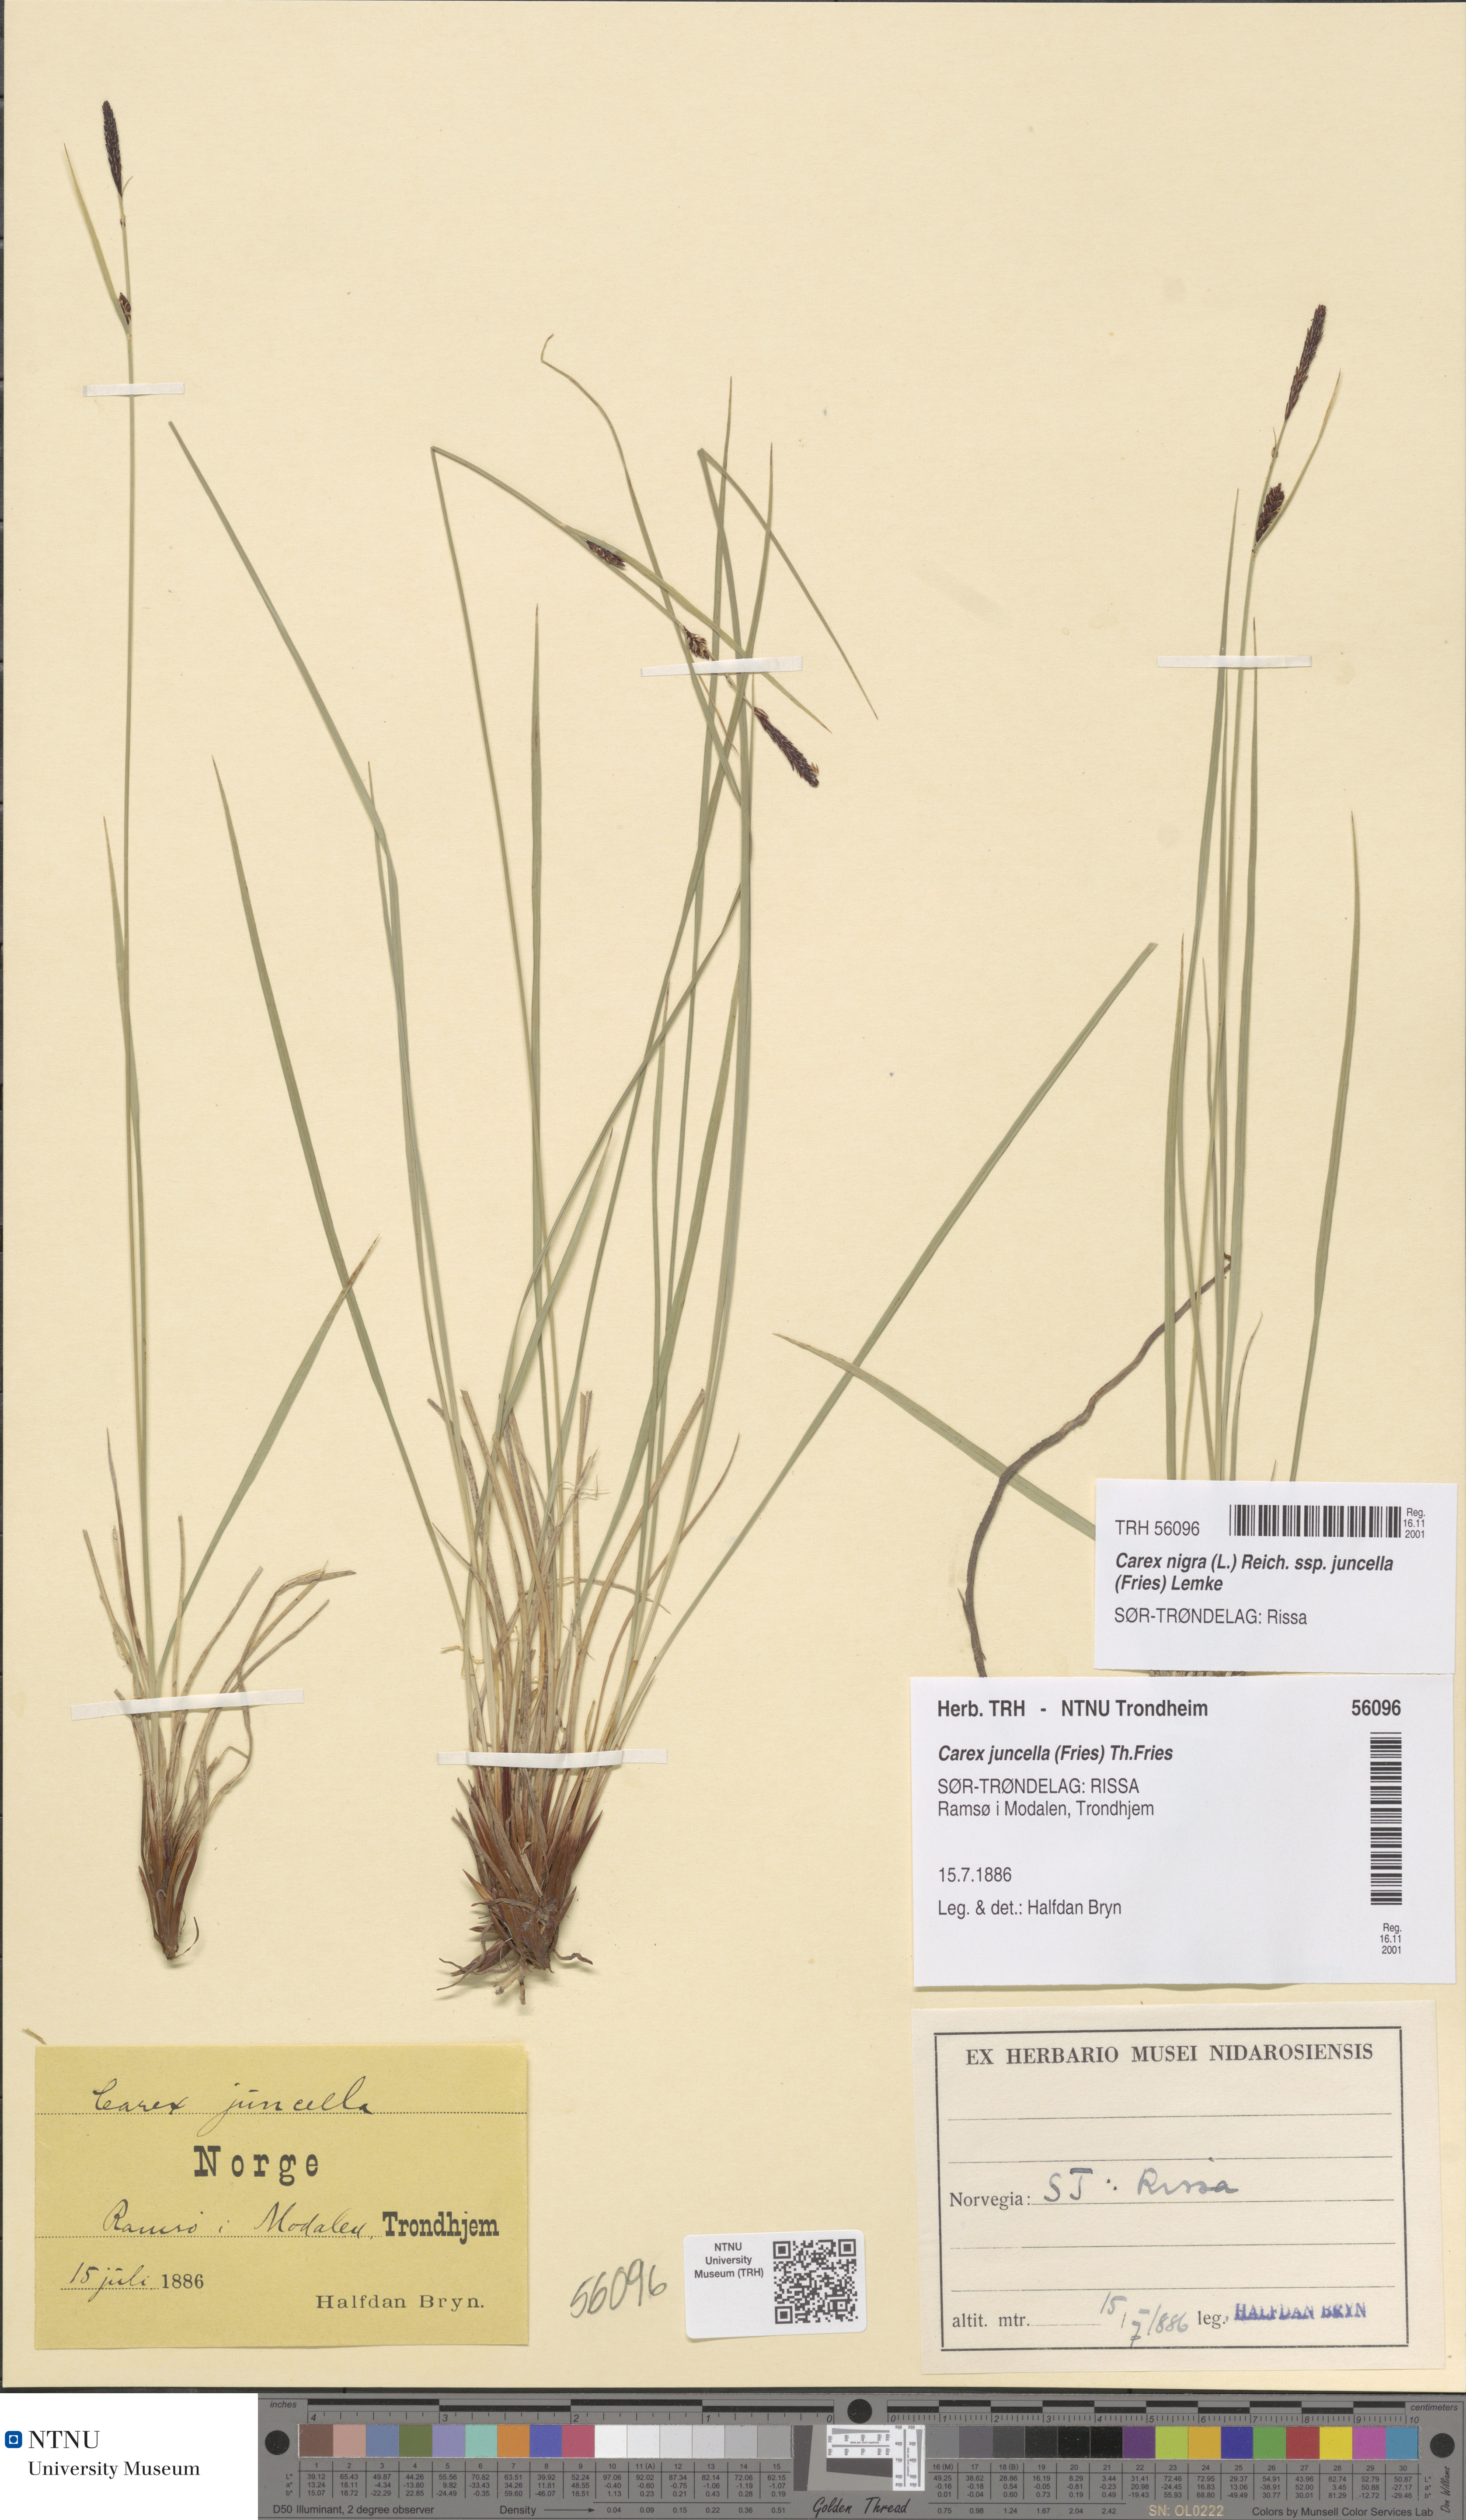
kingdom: Plantae
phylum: Tracheophyta
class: Liliopsida
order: Poales
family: Cyperaceae
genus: Carex
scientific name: Carex nigra
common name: Common sedge
